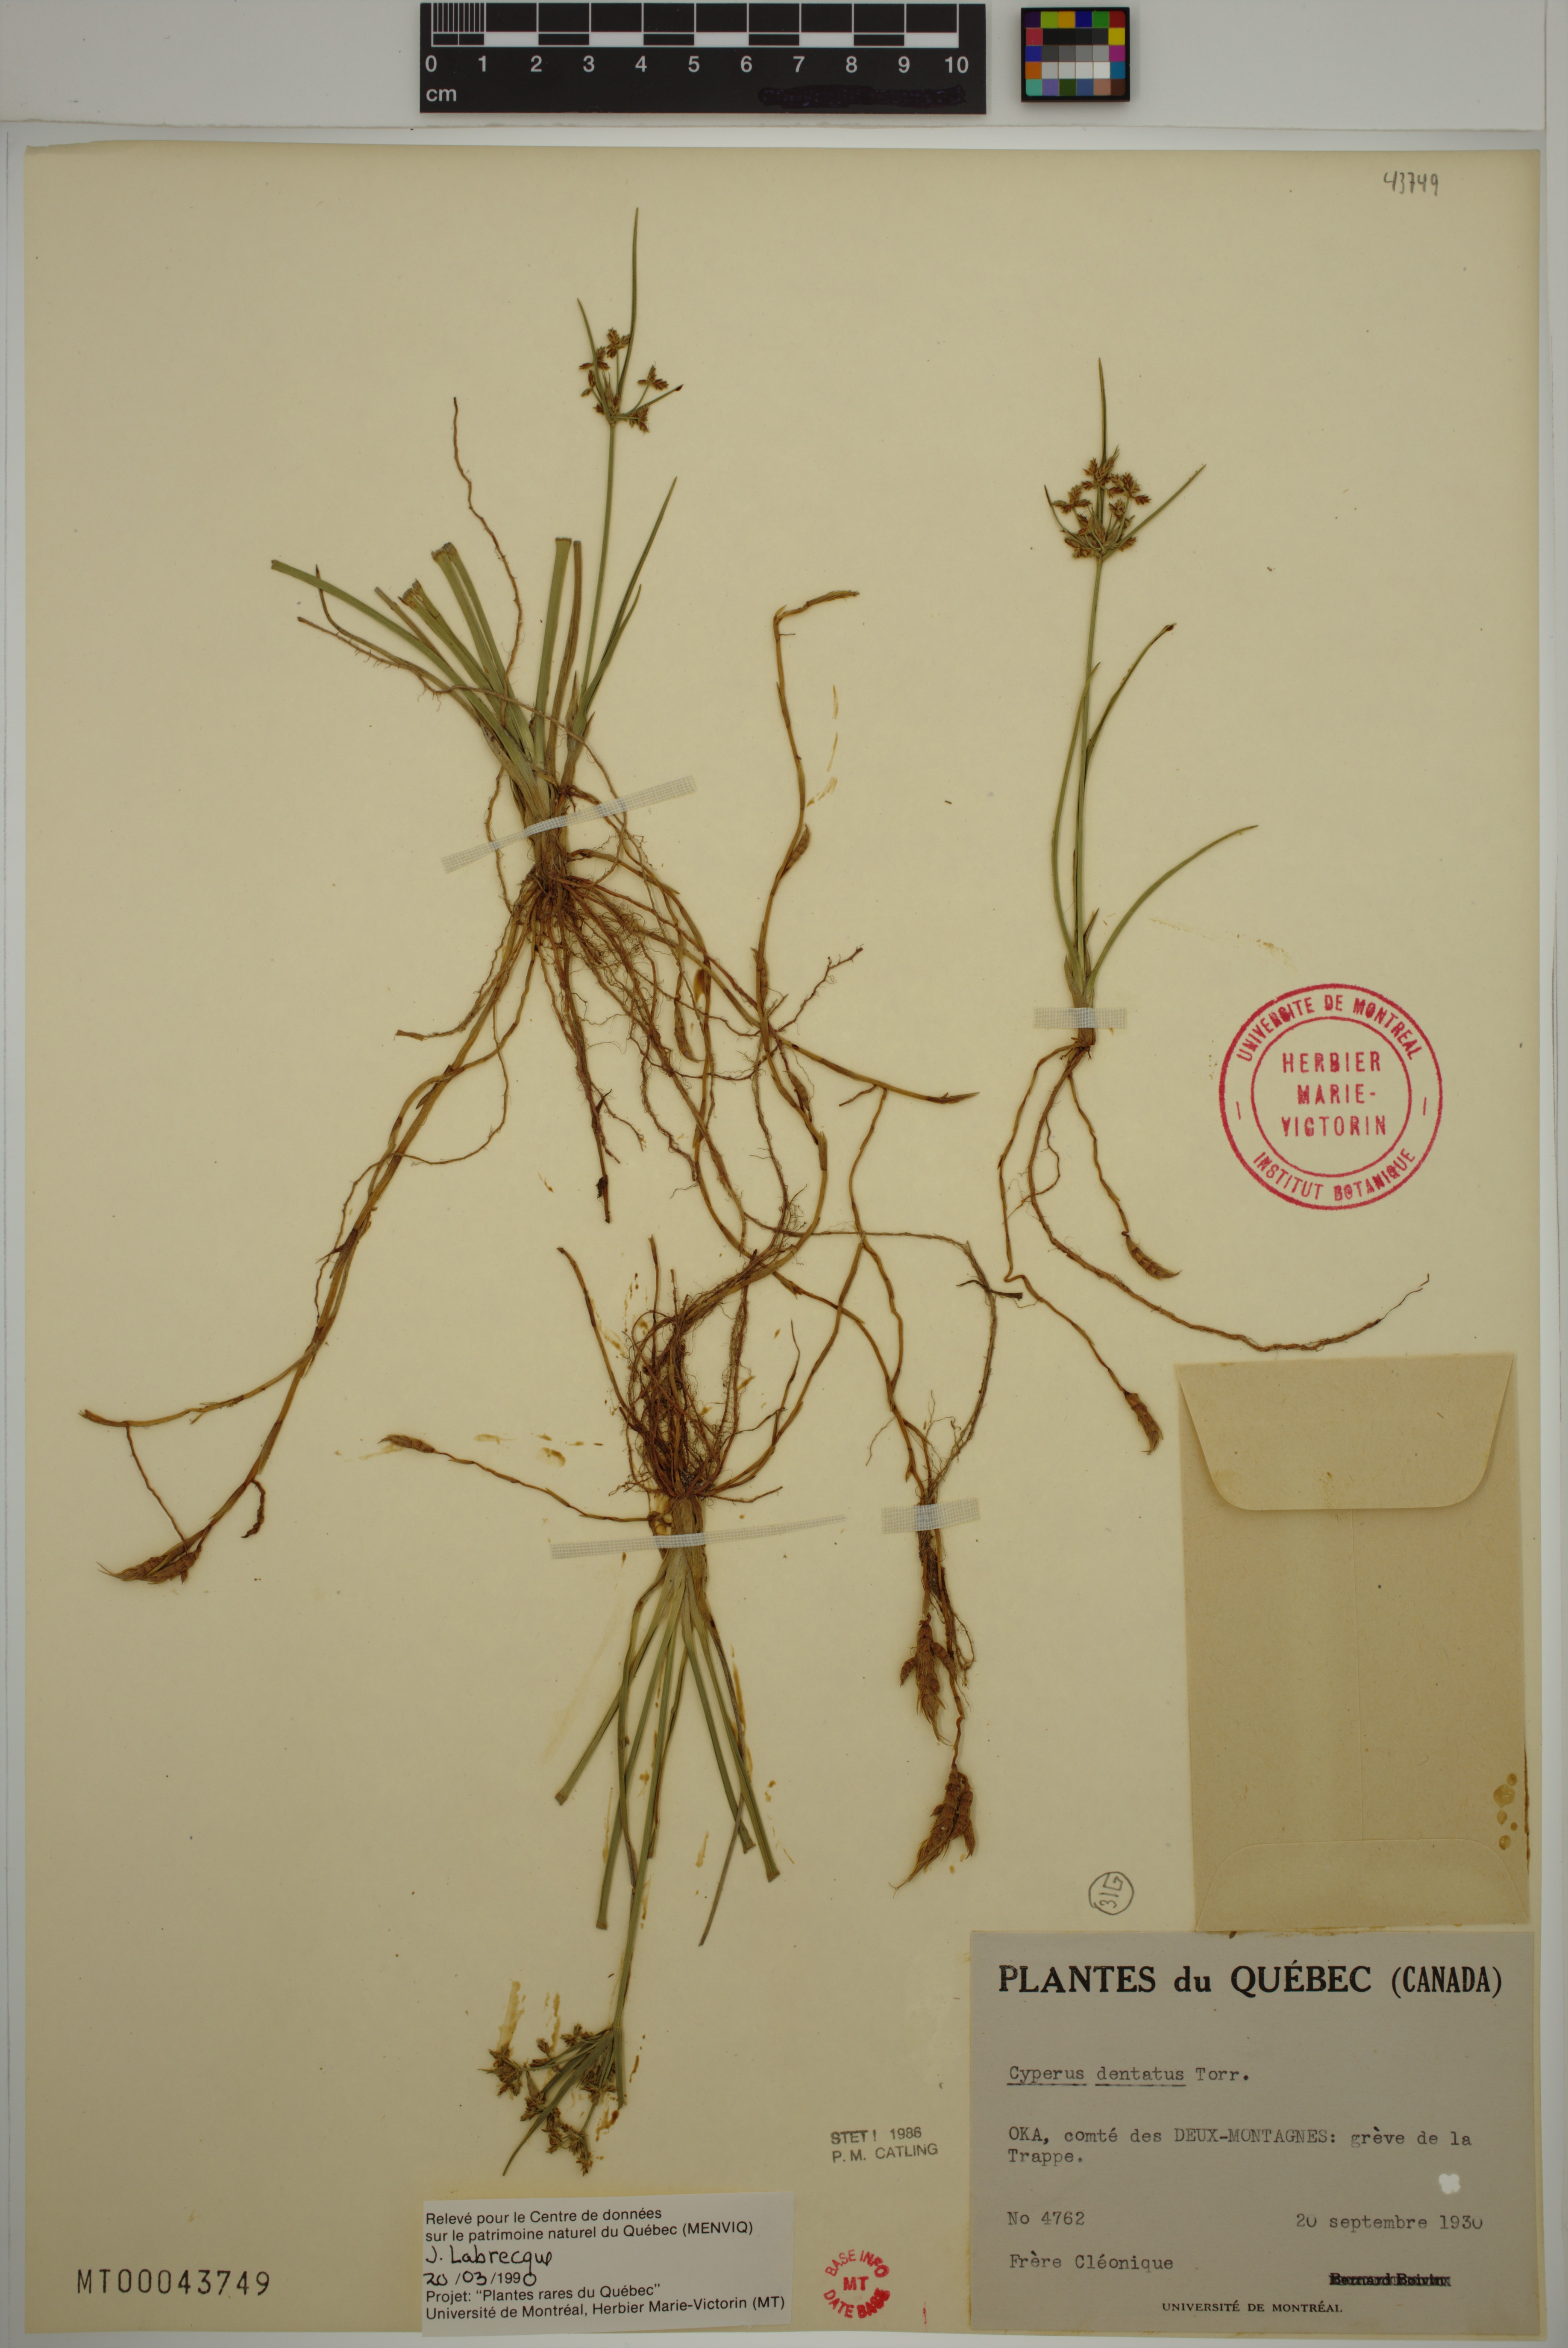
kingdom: Plantae
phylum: Tracheophyta
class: Liliopsida
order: Poales
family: Cyperaceae
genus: Cyperus
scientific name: Cyperus dentatus
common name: Dentate umbrella sedge
